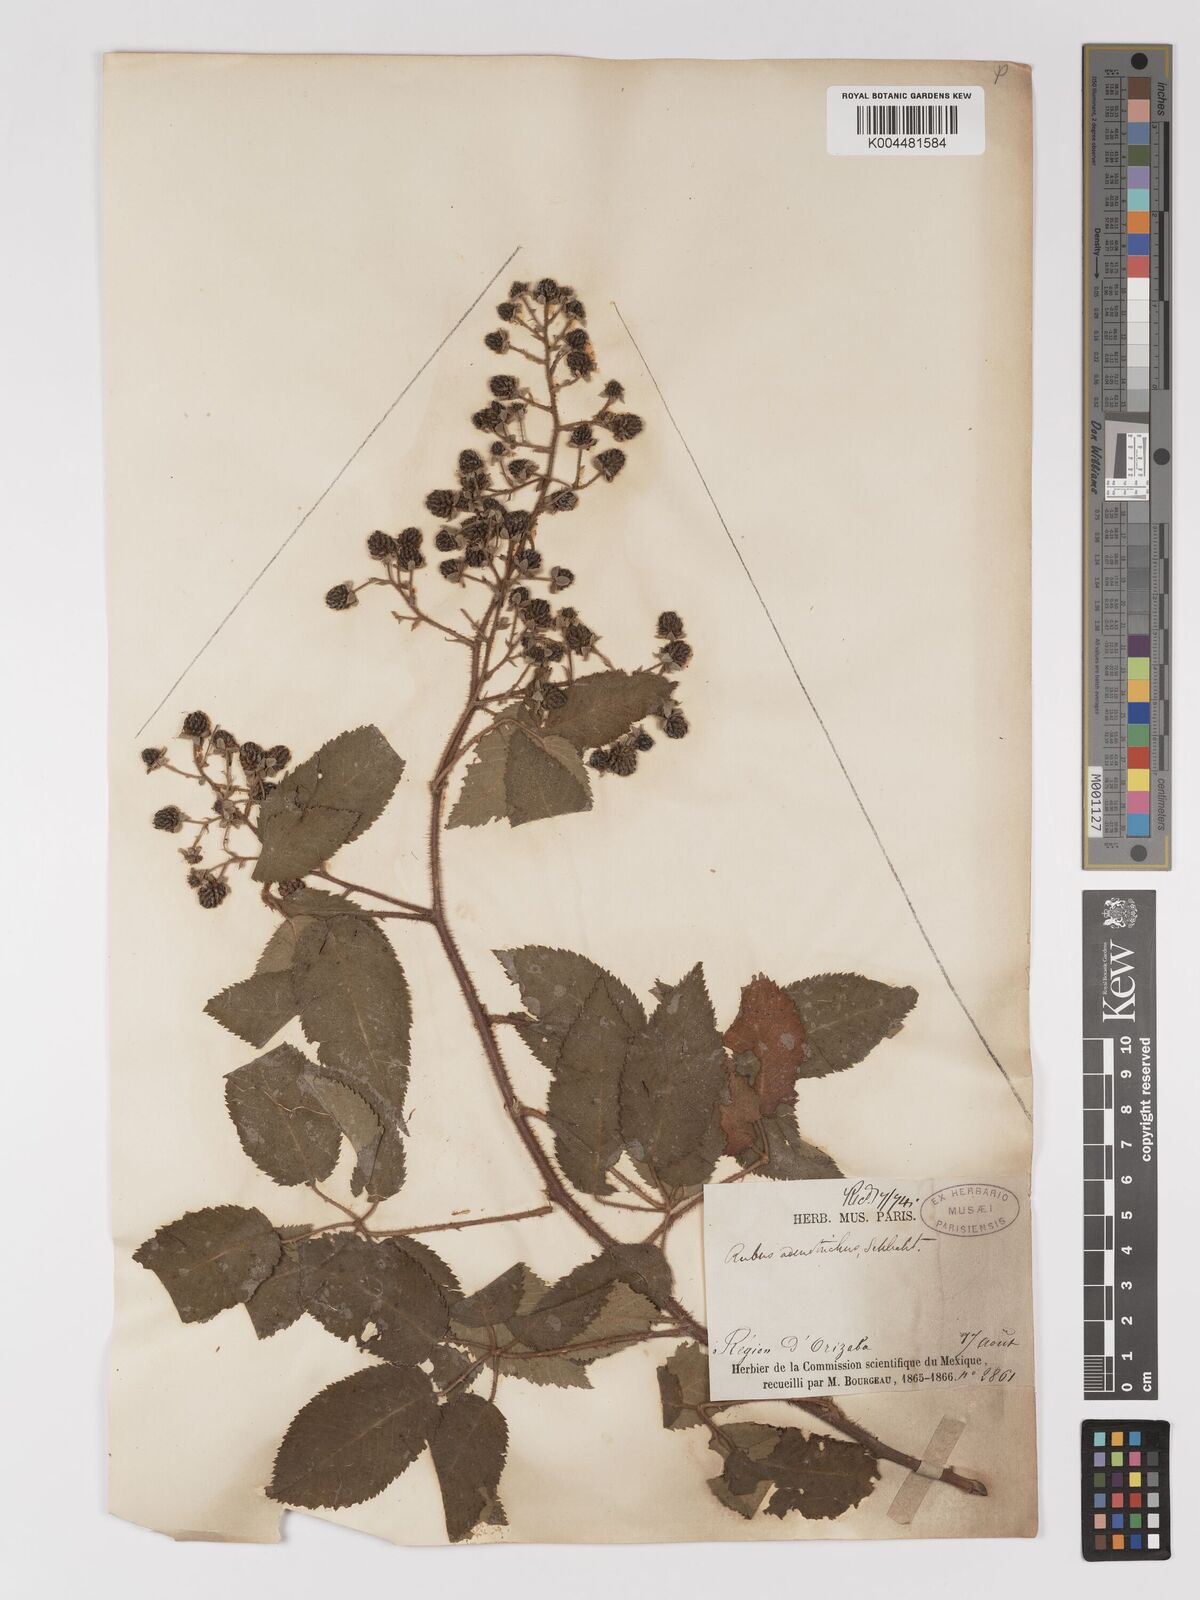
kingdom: Plantae
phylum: Tracheophyta
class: Magnoliopsida
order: Rosales
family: Rosaceae
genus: Rubus
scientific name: Rubus adenotrichos
